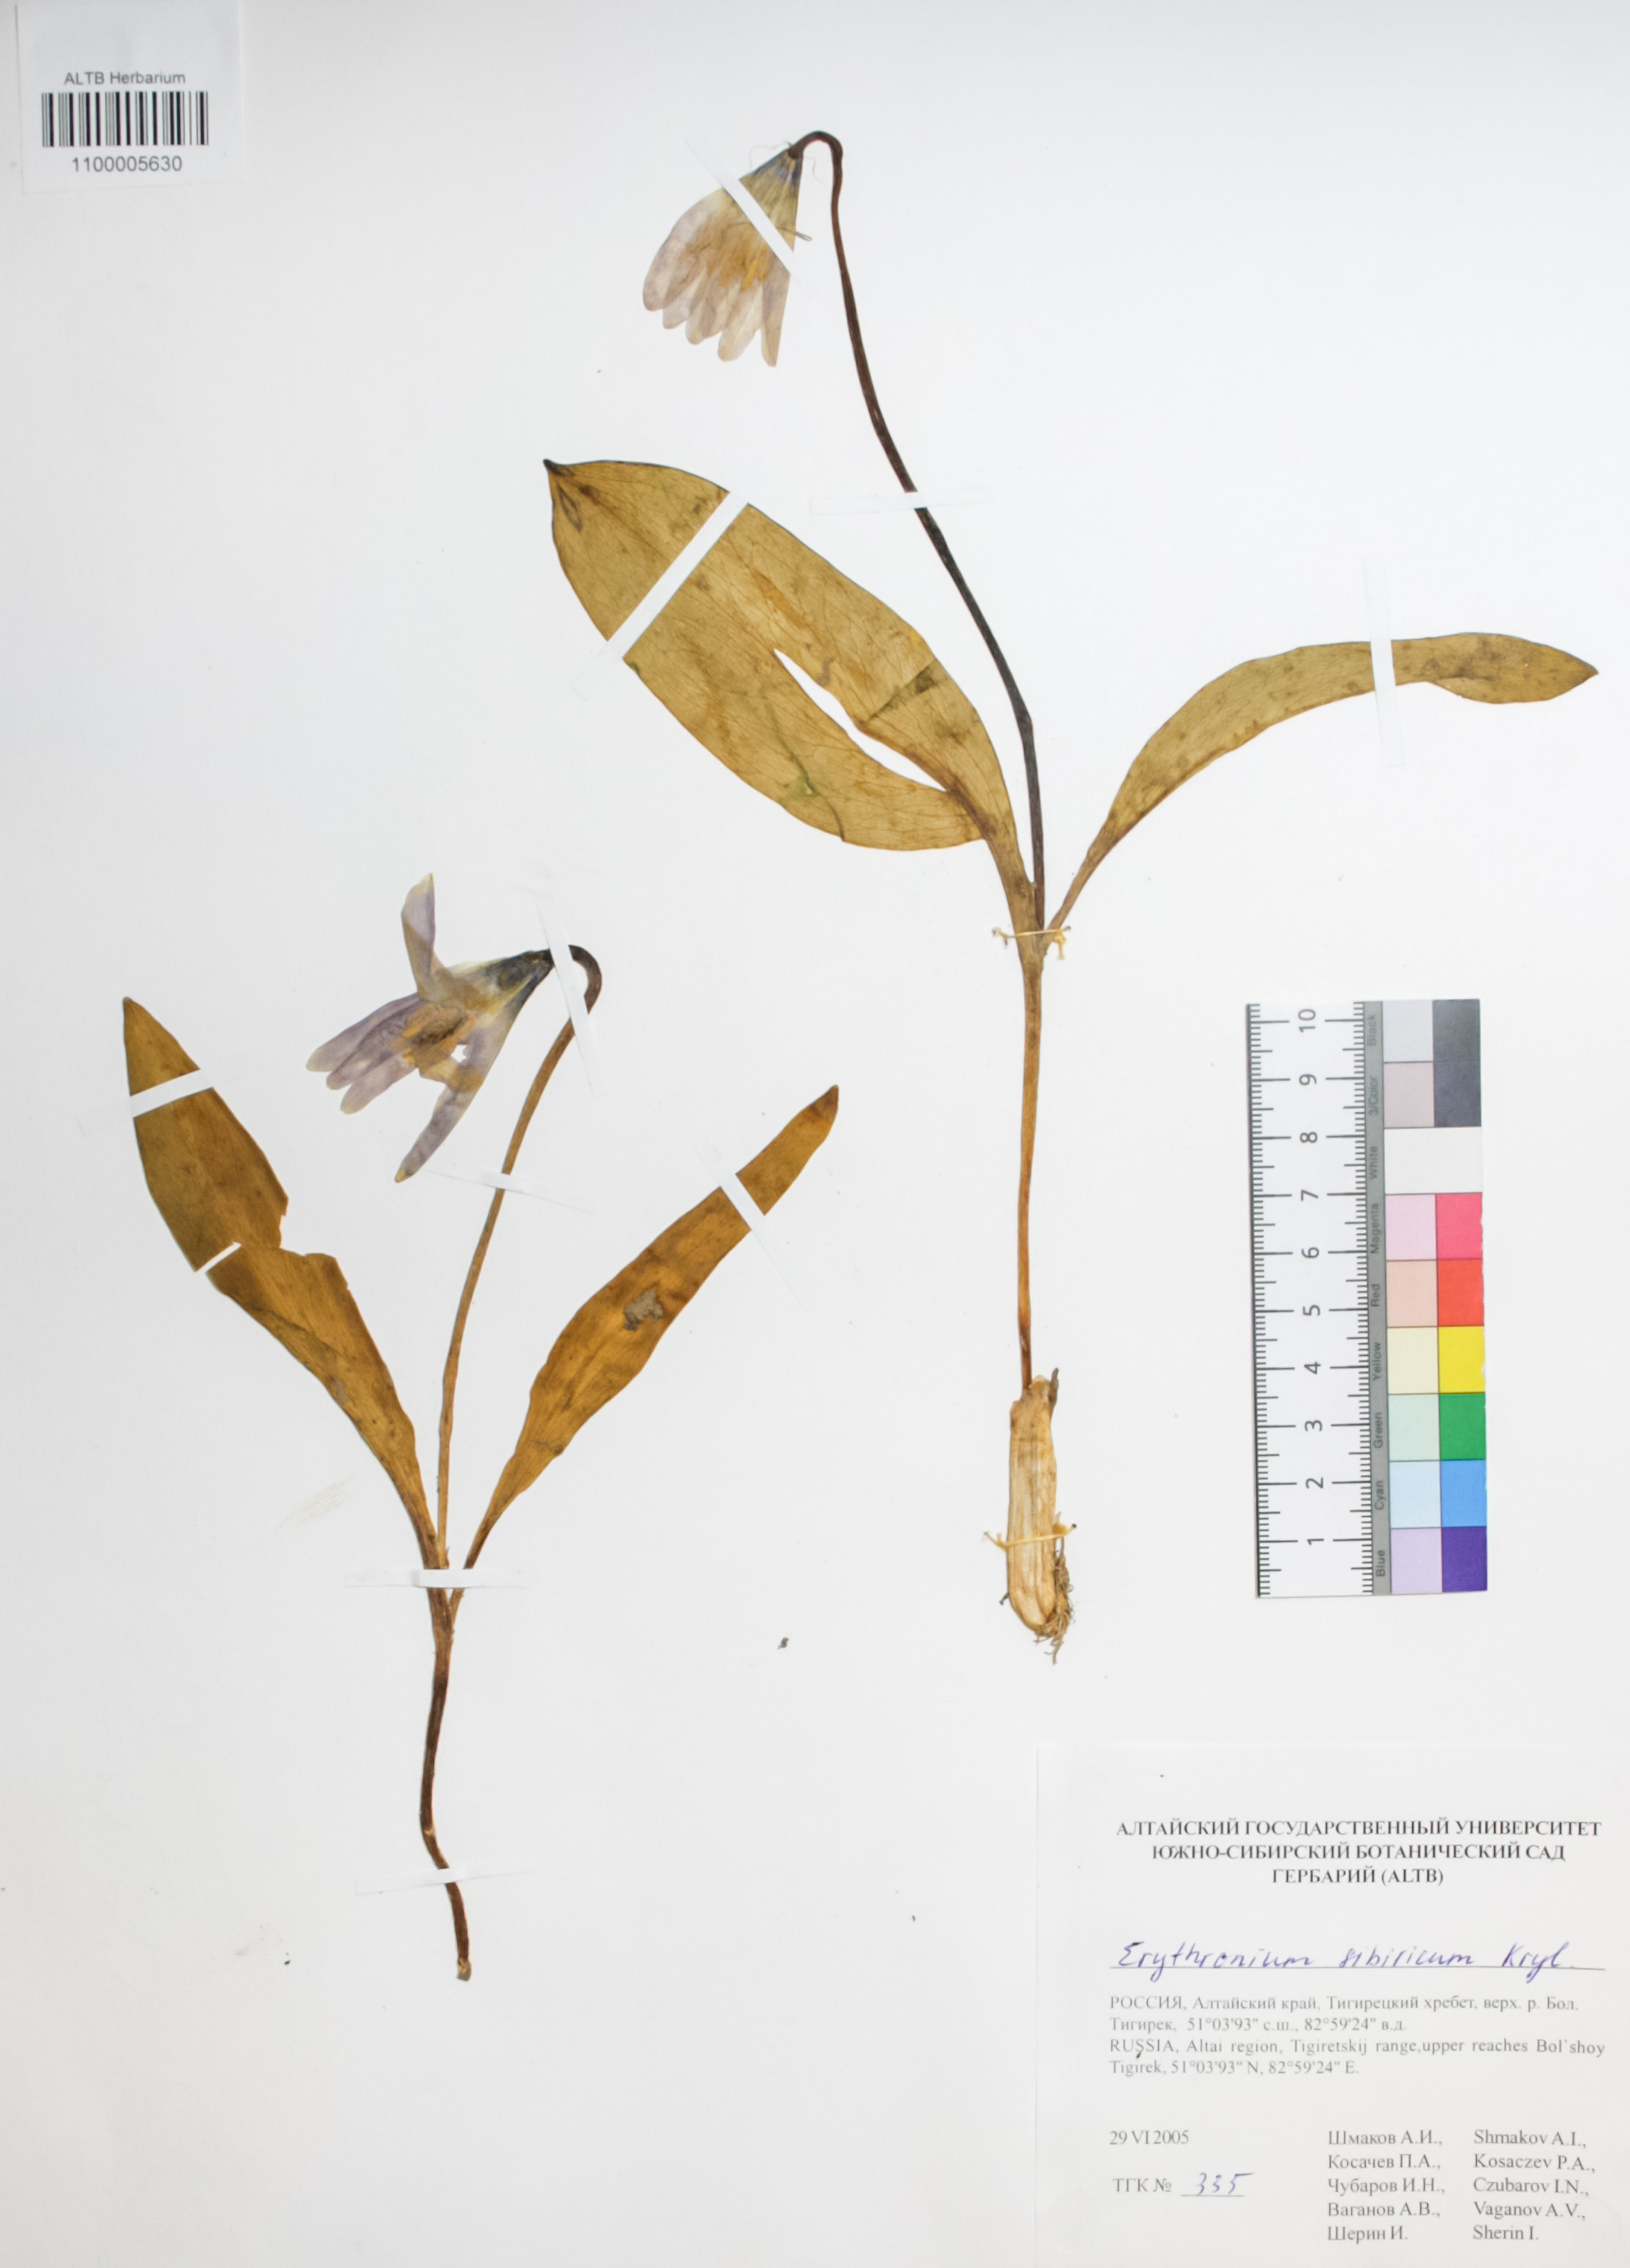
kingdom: Plantae
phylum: Tracheophyta
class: Liliopsida
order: Liliales
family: Liliaceae
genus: Erythronium
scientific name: Erythronium sibiricum
